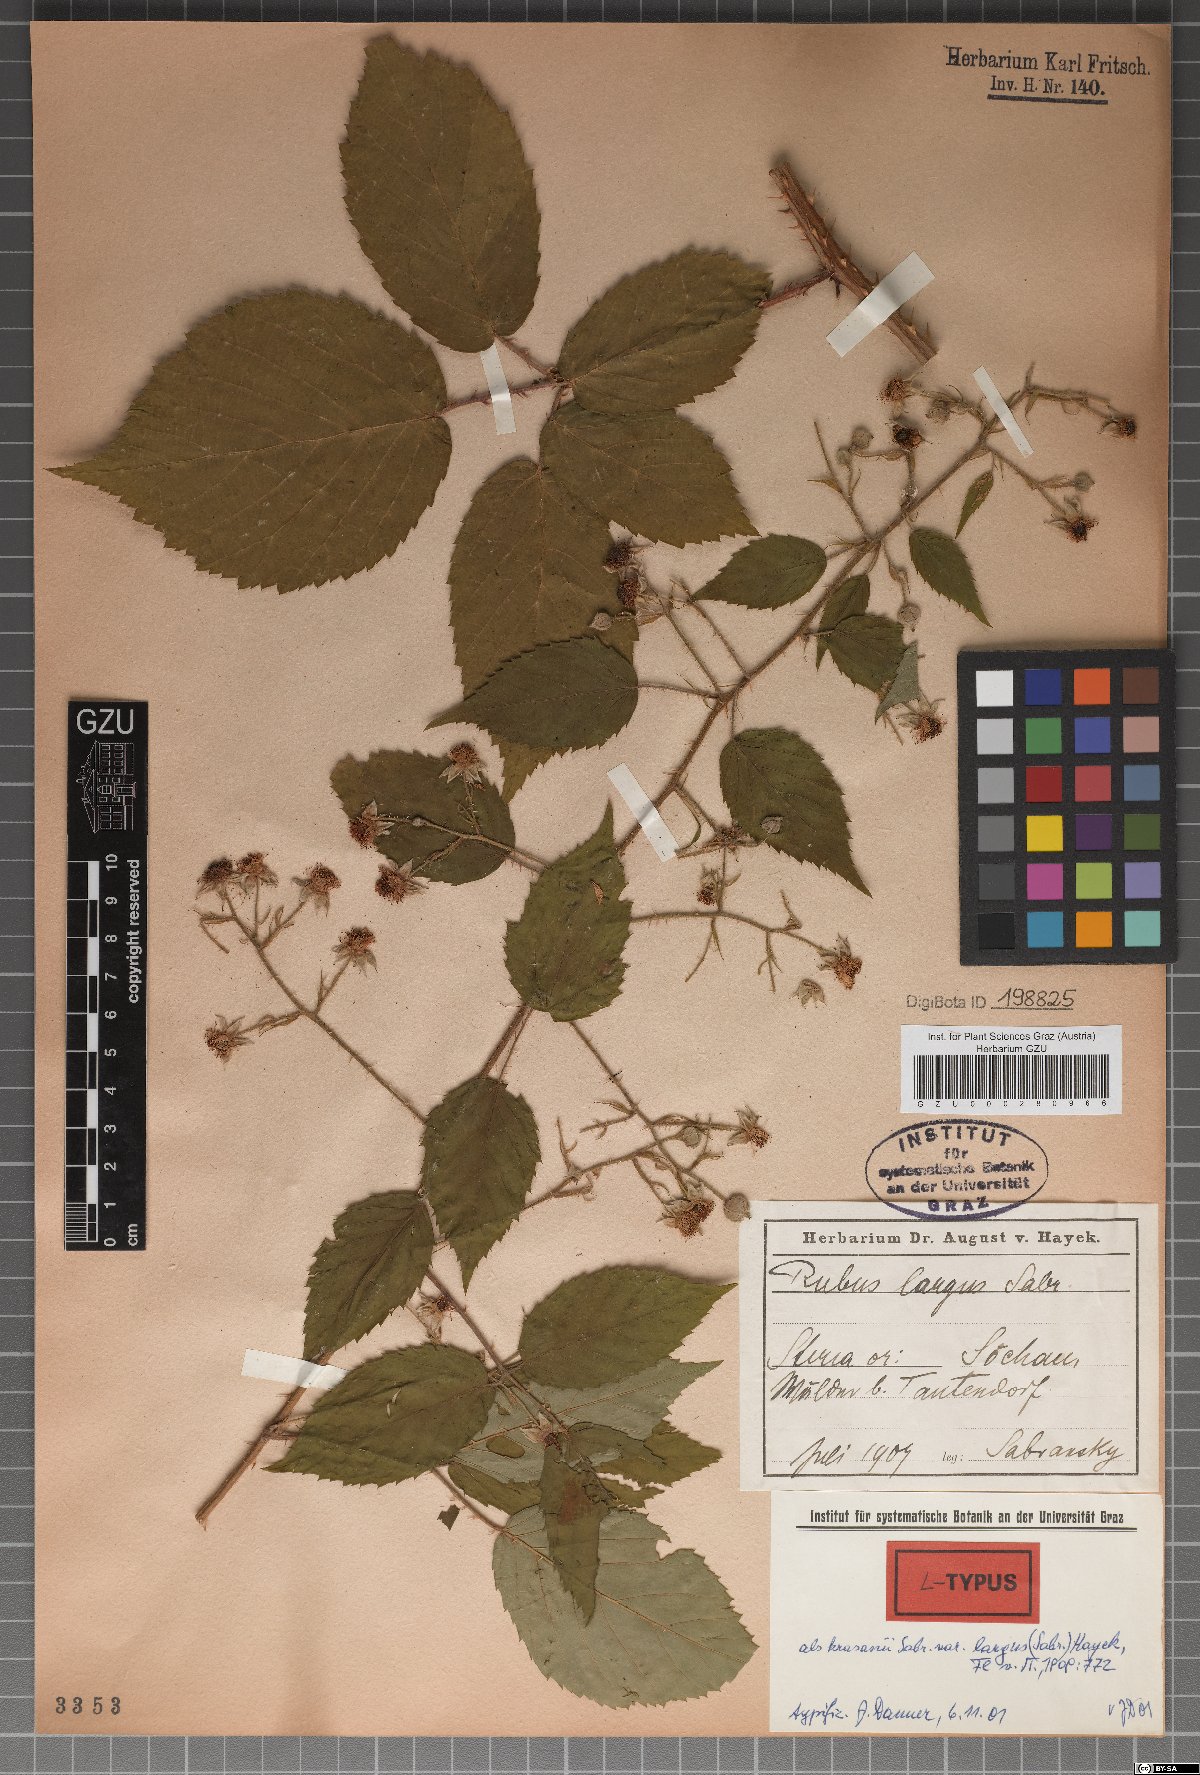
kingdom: Plantae
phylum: Tracheophyta
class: Magnoliopsida
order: Rosales
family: Rosaceae
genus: Rubus
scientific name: Rubus schleicheri
